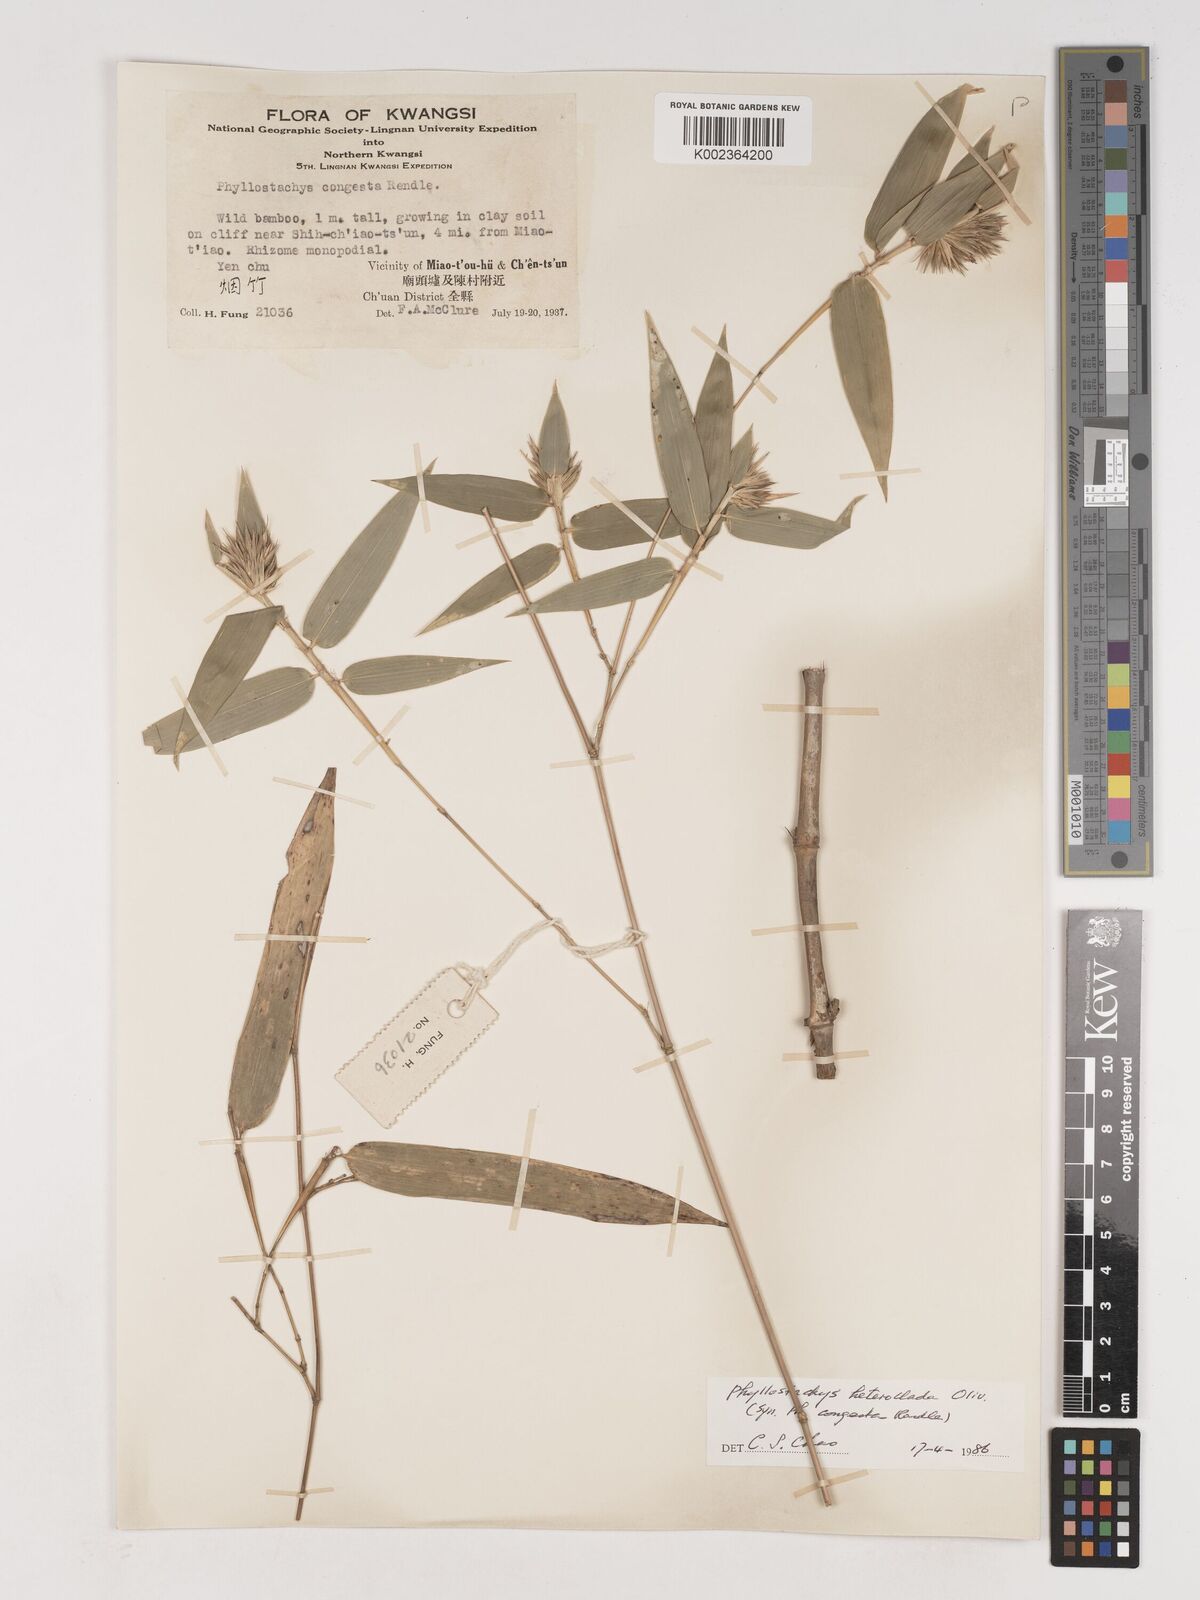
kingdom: Plantae
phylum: Tracheophyta
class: Liliopsida
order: Poales
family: Poaceae
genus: Phyllostachys
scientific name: Phyllostachys heteroclada
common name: Fishscale bamboo
